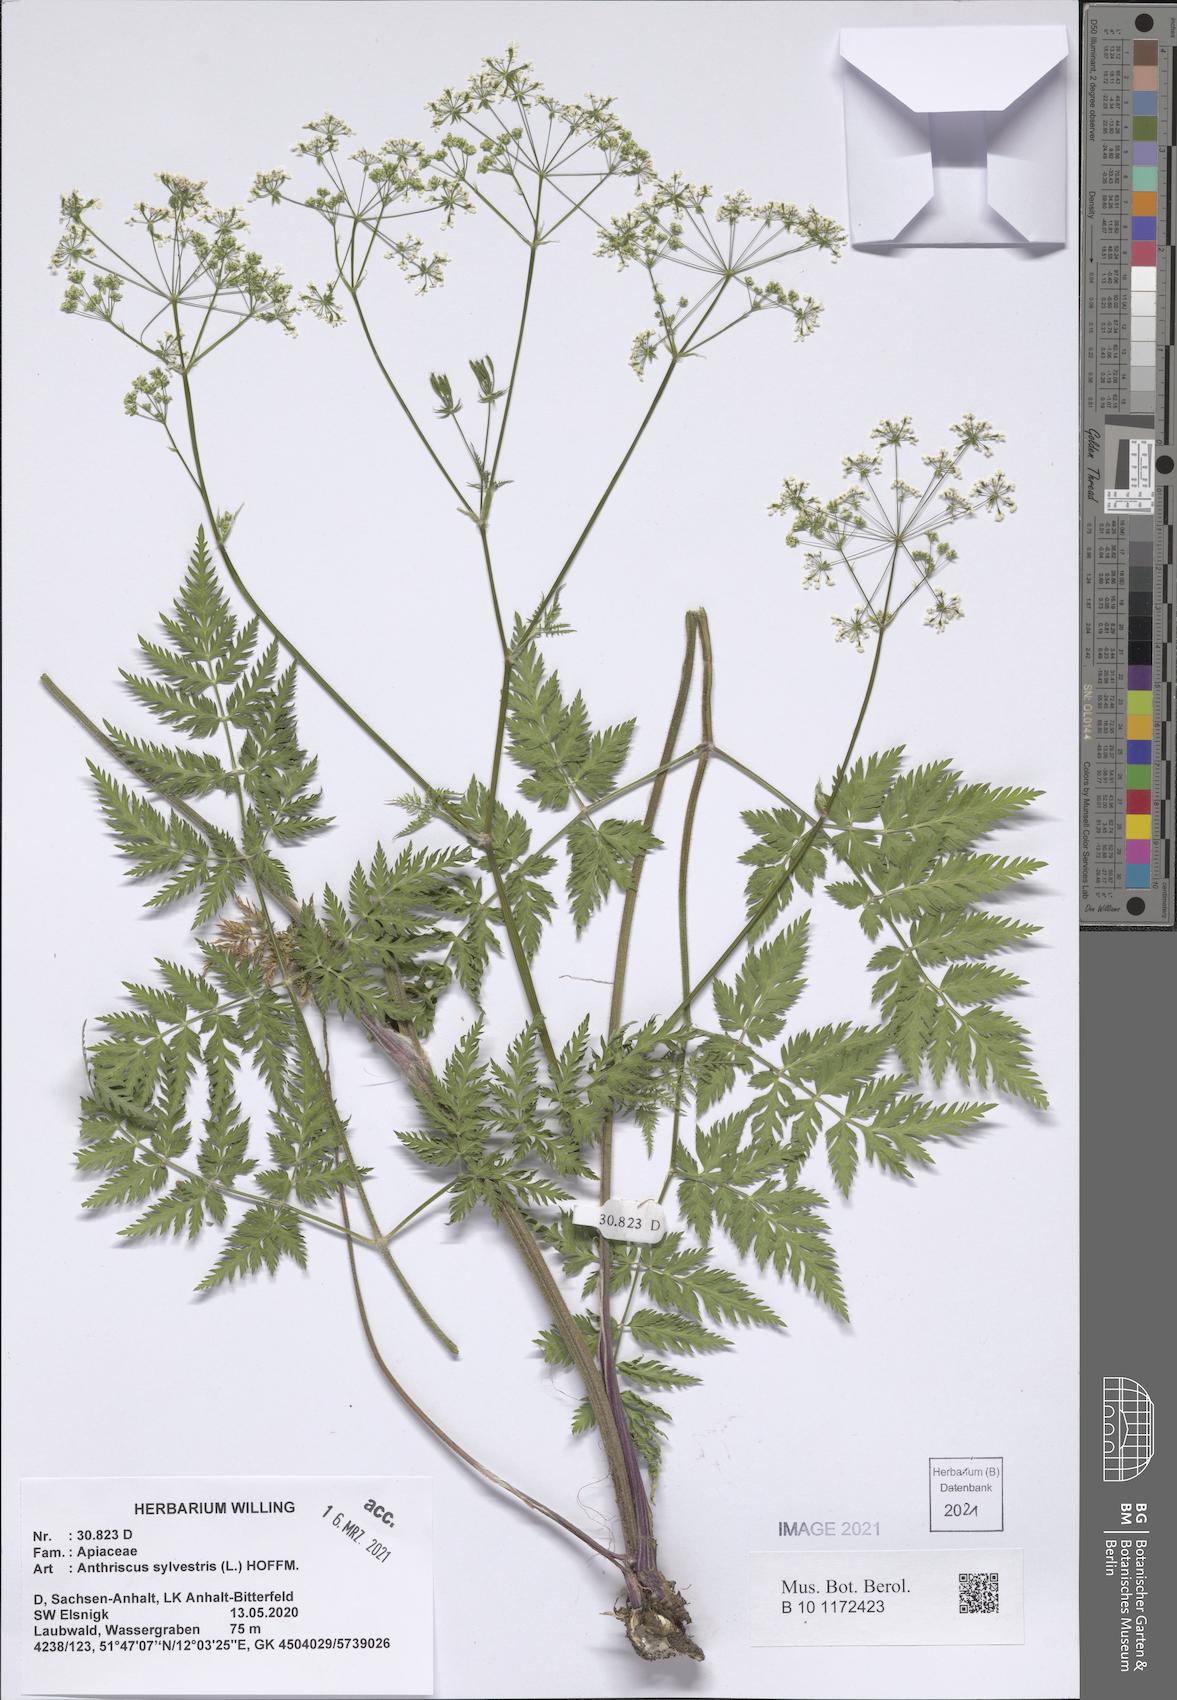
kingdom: Plantae
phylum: Tracheophyta
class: Magnoliopsida
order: Apiales
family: Apiaceae
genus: Anthriscus
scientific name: Anthriscus sylvestris
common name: Cow parsley
